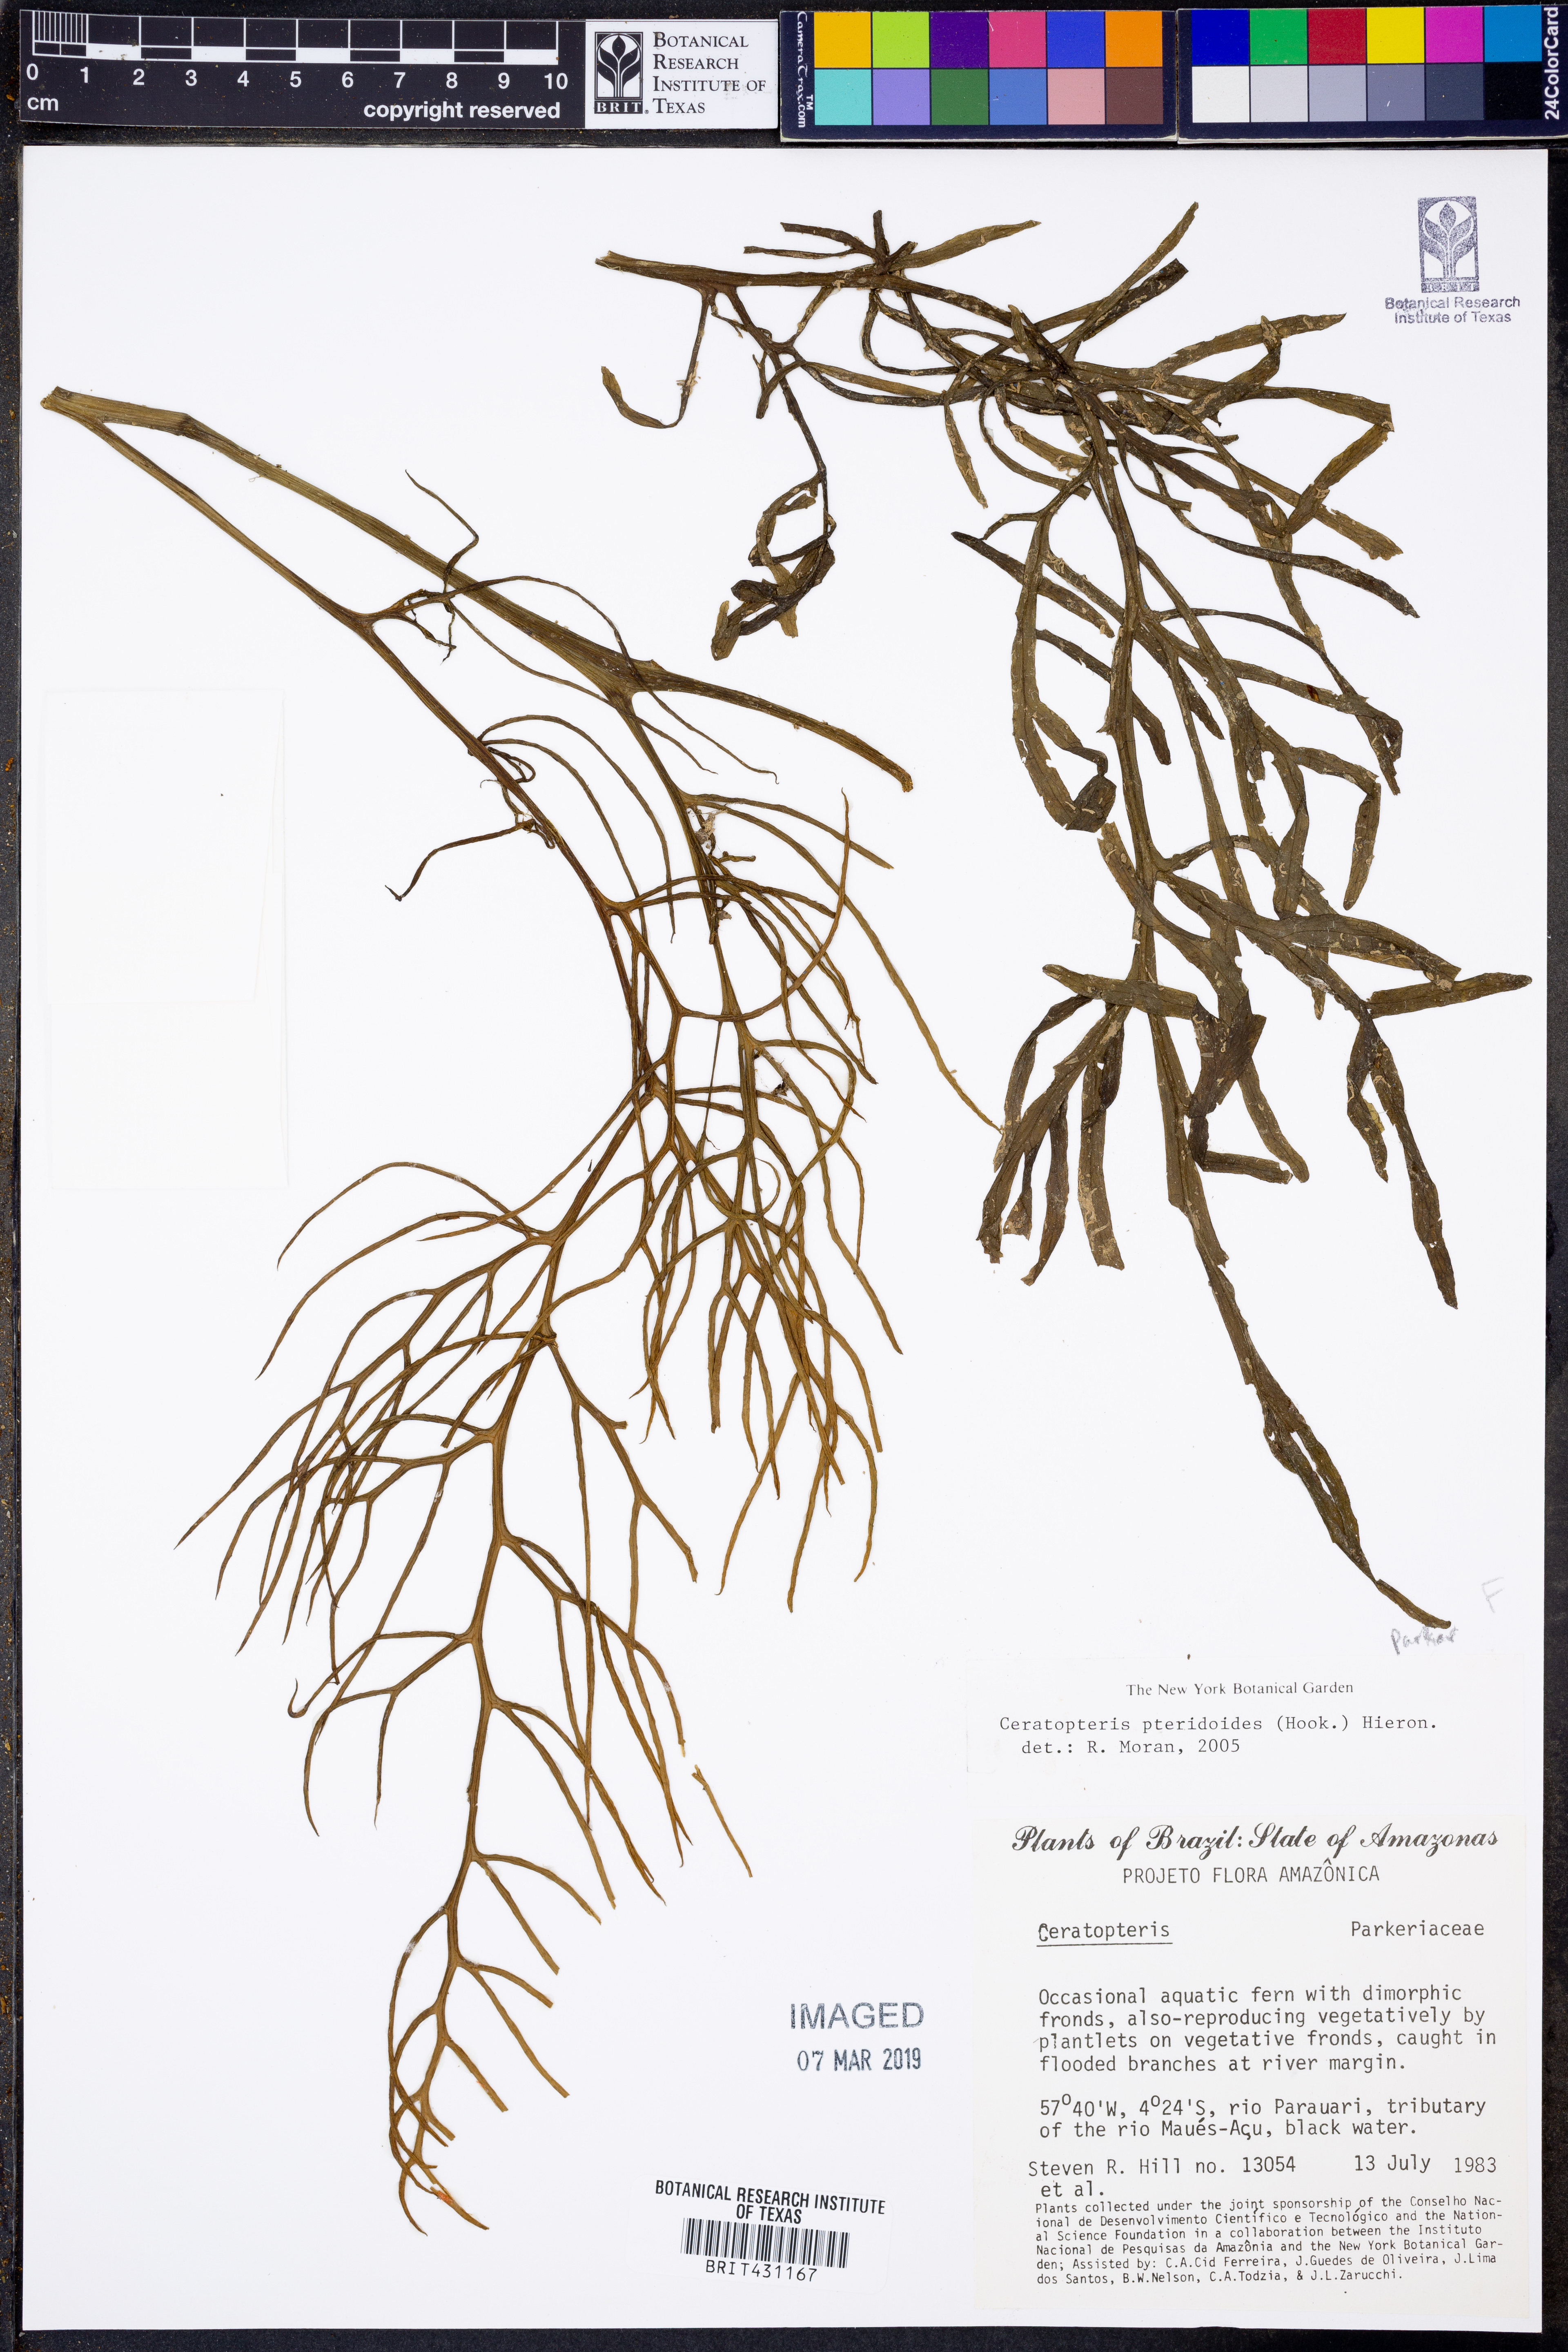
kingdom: Plantae
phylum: Tracheophyta
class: Polypodiopsida
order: Polypodiales
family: Pteridaceae
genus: Ceratopteris
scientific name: Ceratopteris pteridoides
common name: Floating fern
